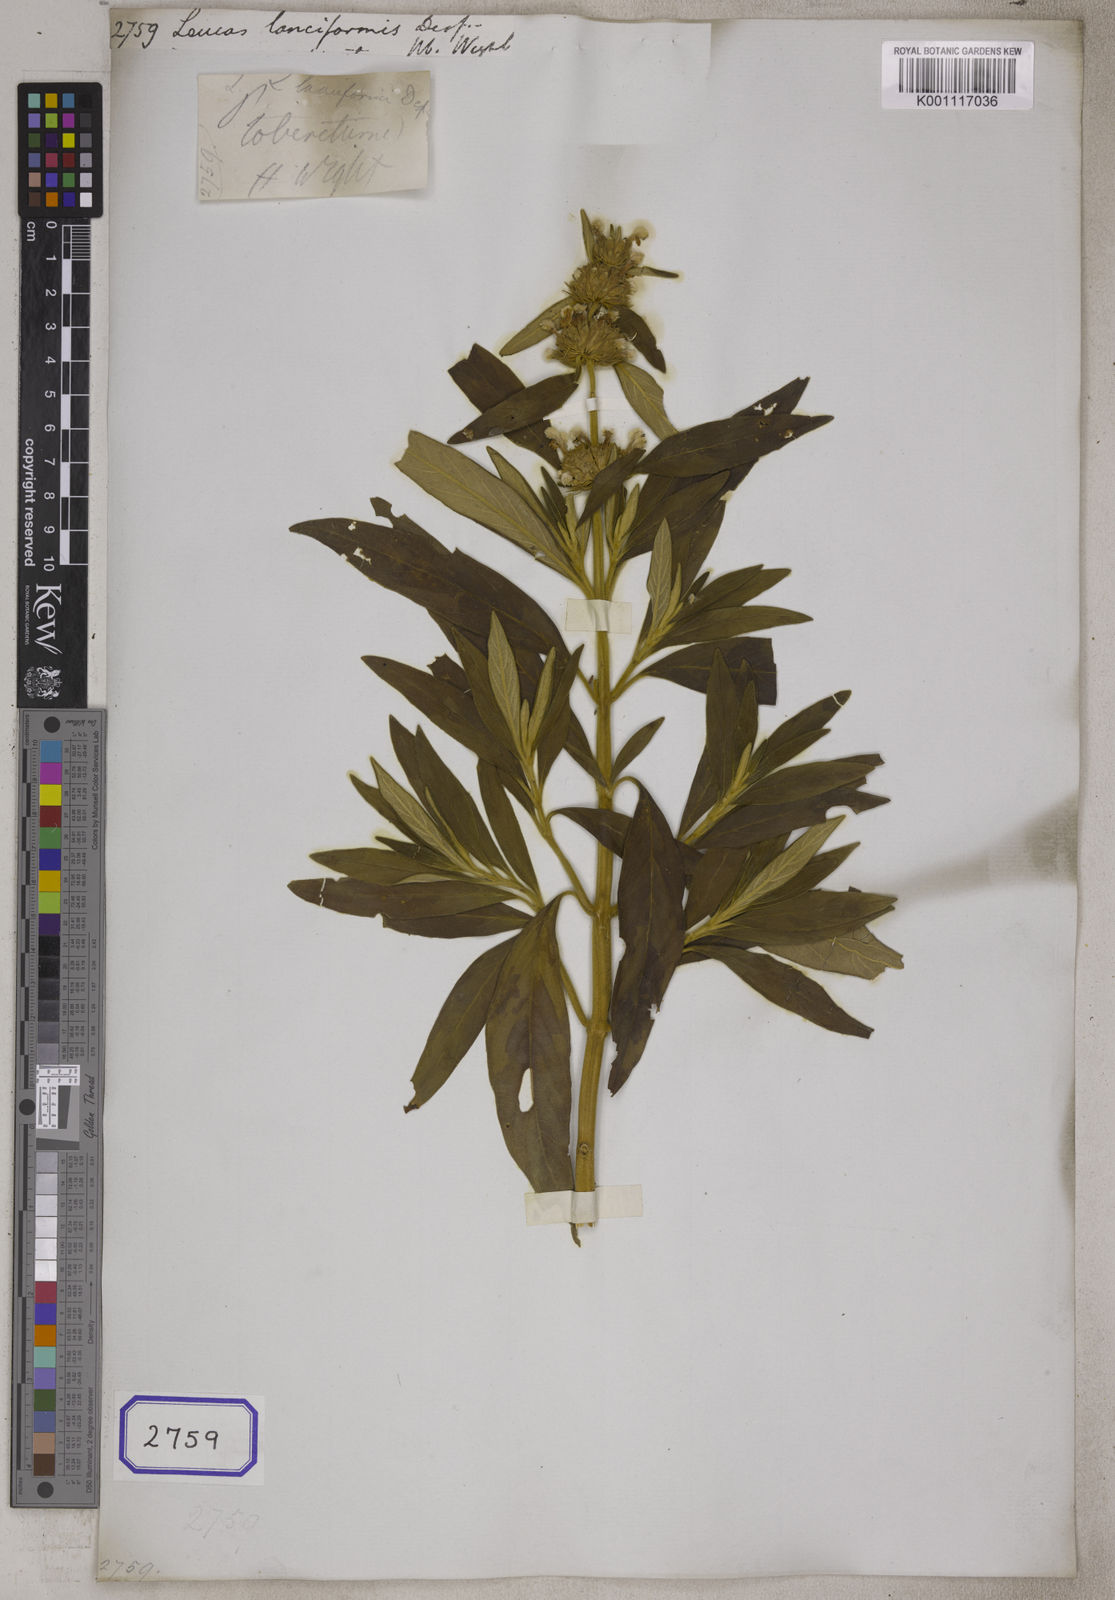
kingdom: Plantae
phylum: Tracheophyta
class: Magnoliopsida
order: Lamiales
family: Lamiaceae
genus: Leucas
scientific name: Leucas
